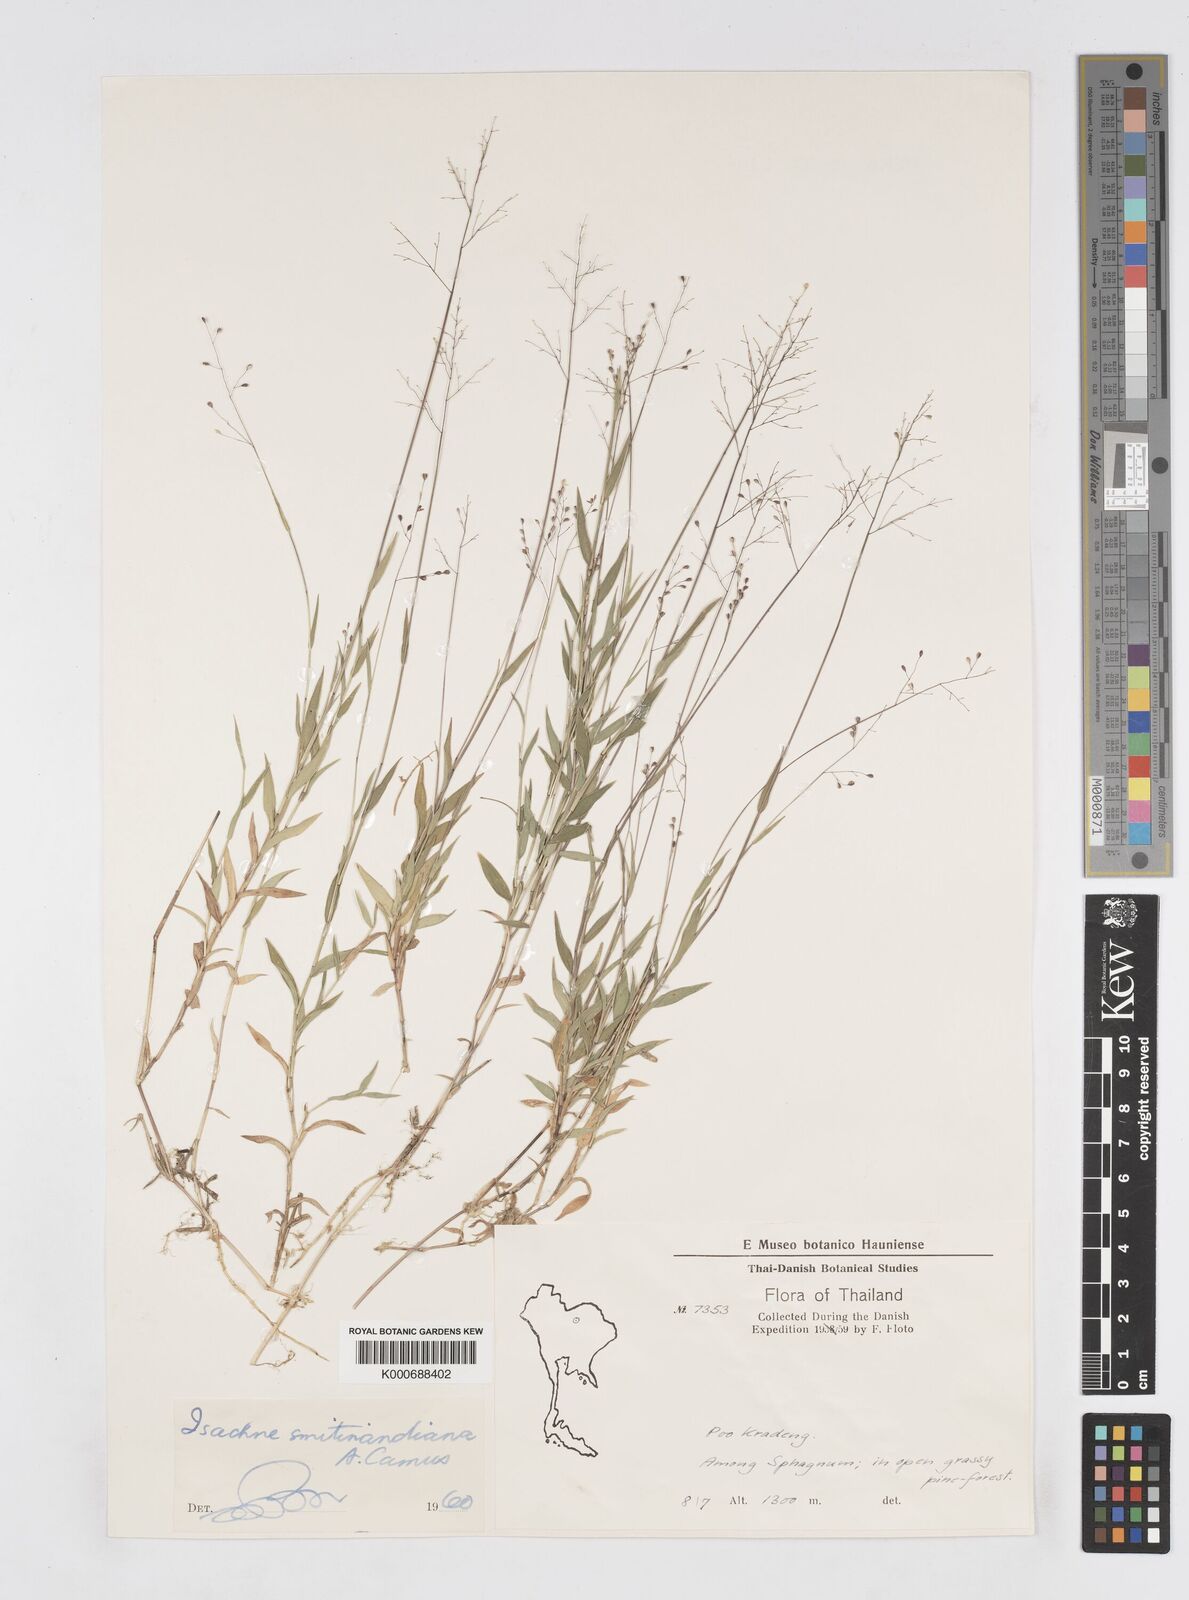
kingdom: Plantae
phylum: Tracheophyta
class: Liliopsida
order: Poales
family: Poaceae
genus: Isachne
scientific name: Isachne smitinandiana
